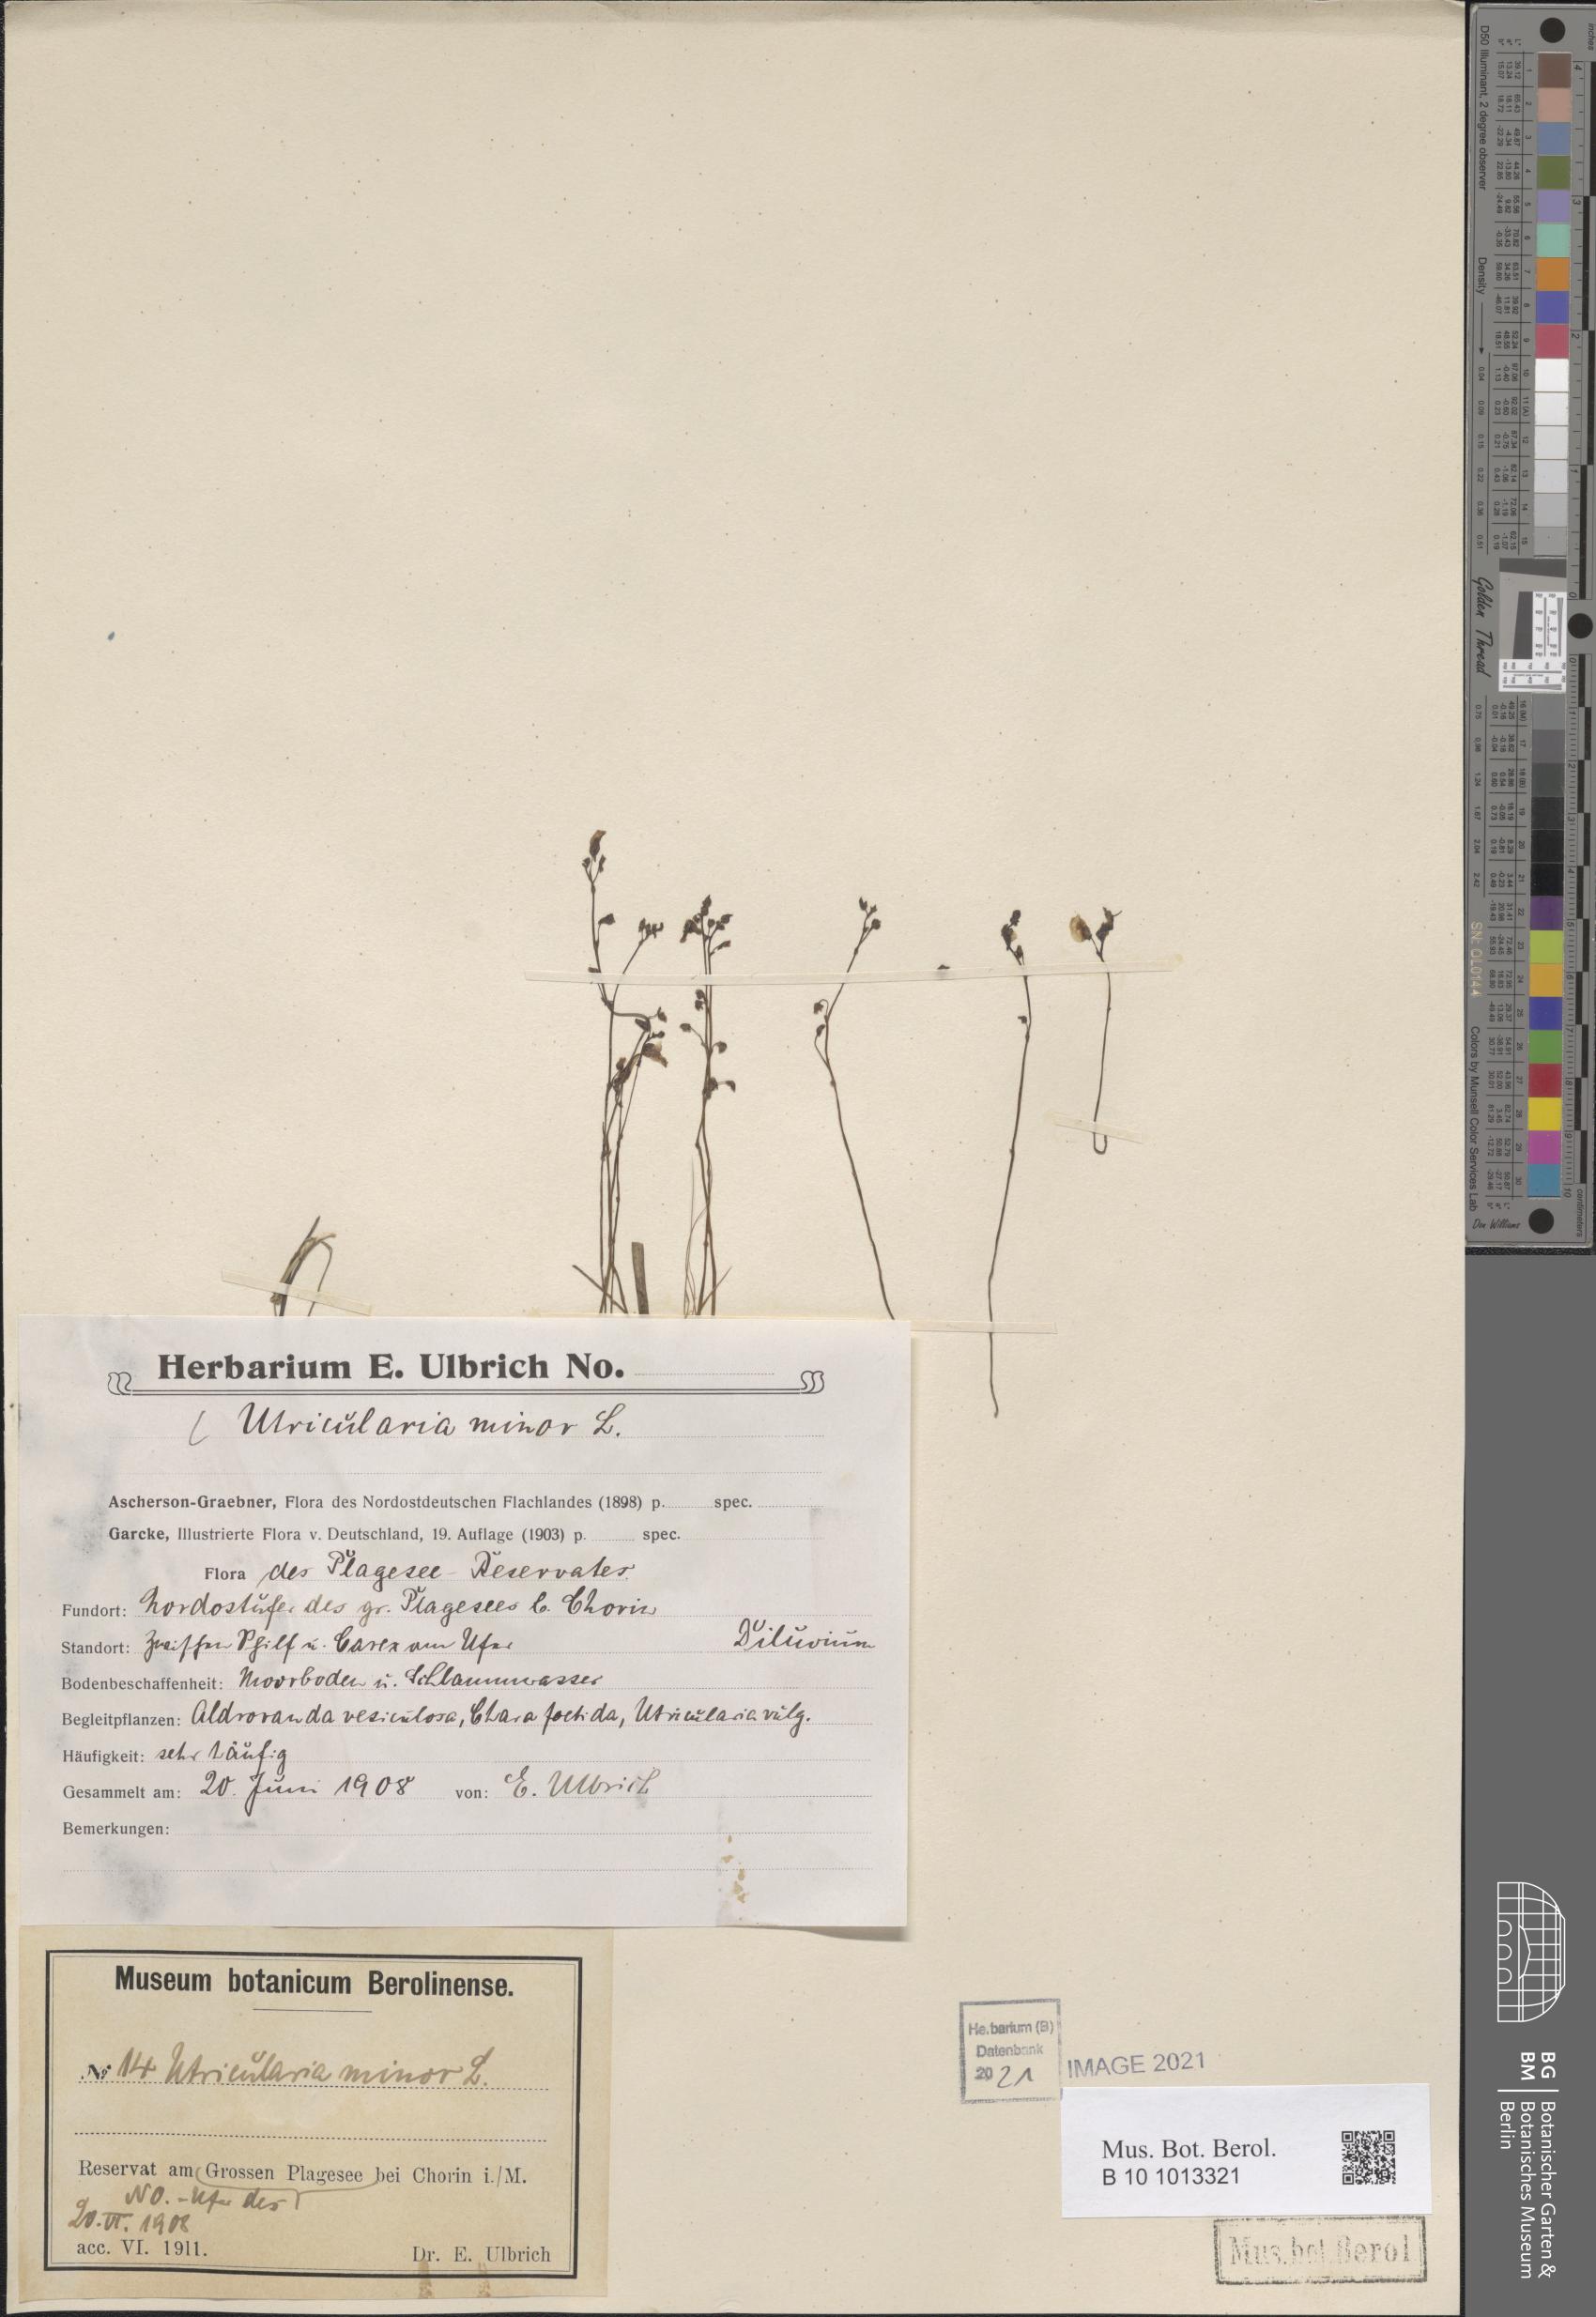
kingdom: Plantae
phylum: Tracheophyta
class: Magnoliopsida
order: Lamiales
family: Lentibulariaceae
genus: Utricularia
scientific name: Utricularia minor
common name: Lesser bladderwort
